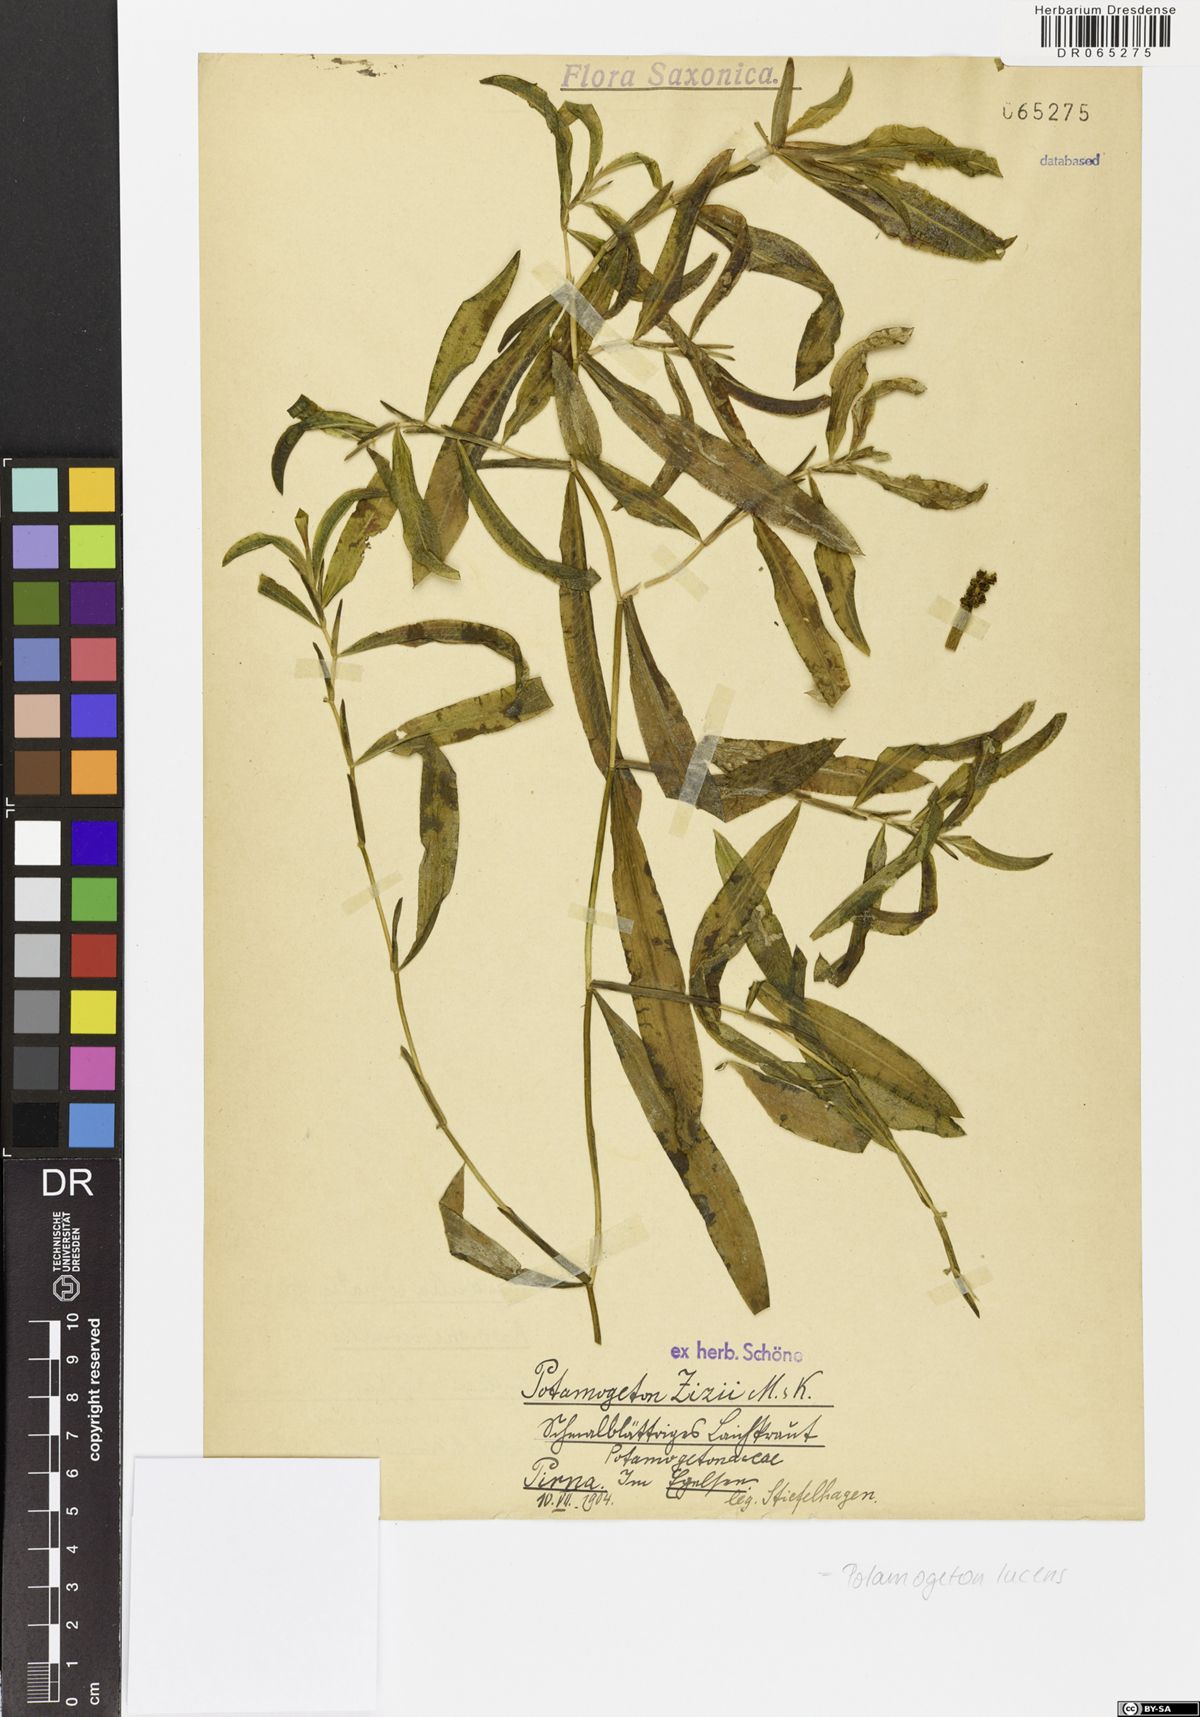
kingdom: Plantae
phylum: Tracheophyta
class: Liliopsida
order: Alismatales
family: Potamogetonaceae
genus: Potamogeton
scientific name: Potamogeton lucens
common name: Shining pondweed
